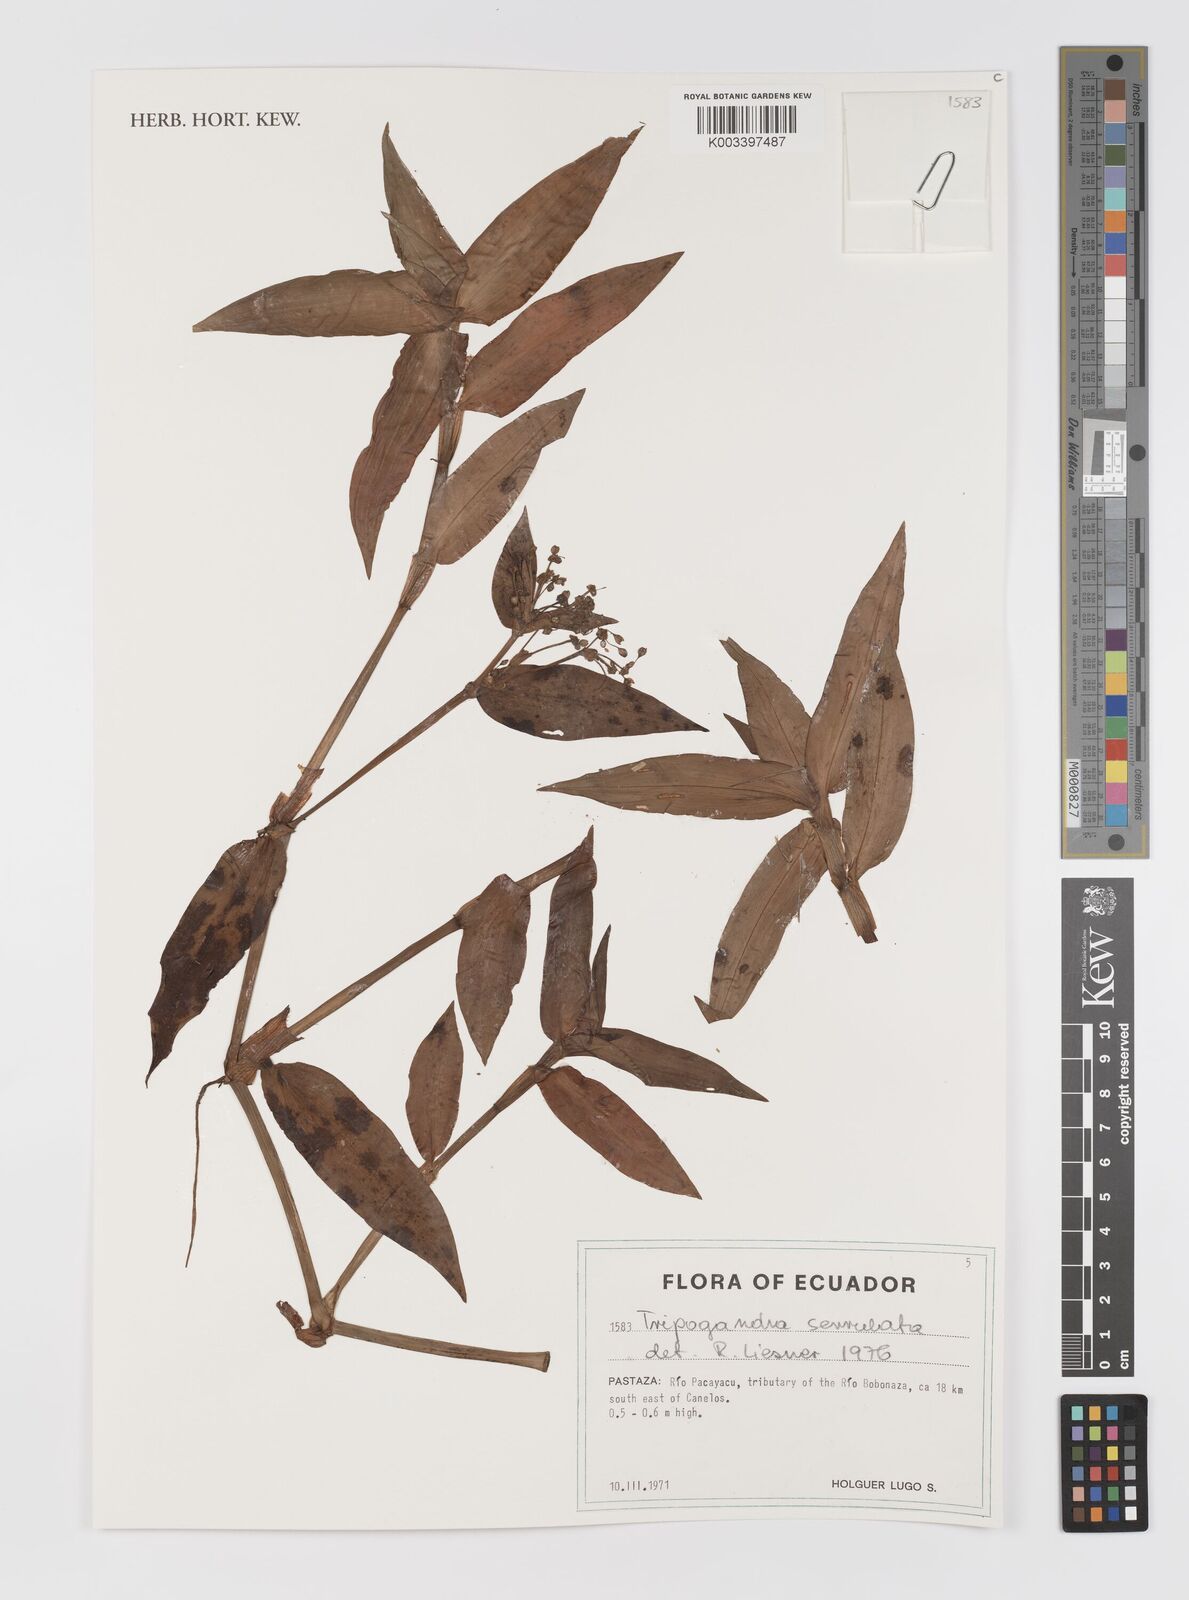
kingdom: Plantae
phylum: Tracheophyta
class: Liliopsida
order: Commelinales
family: Commelinaceae
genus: Callisia
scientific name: Callisia serrulata
